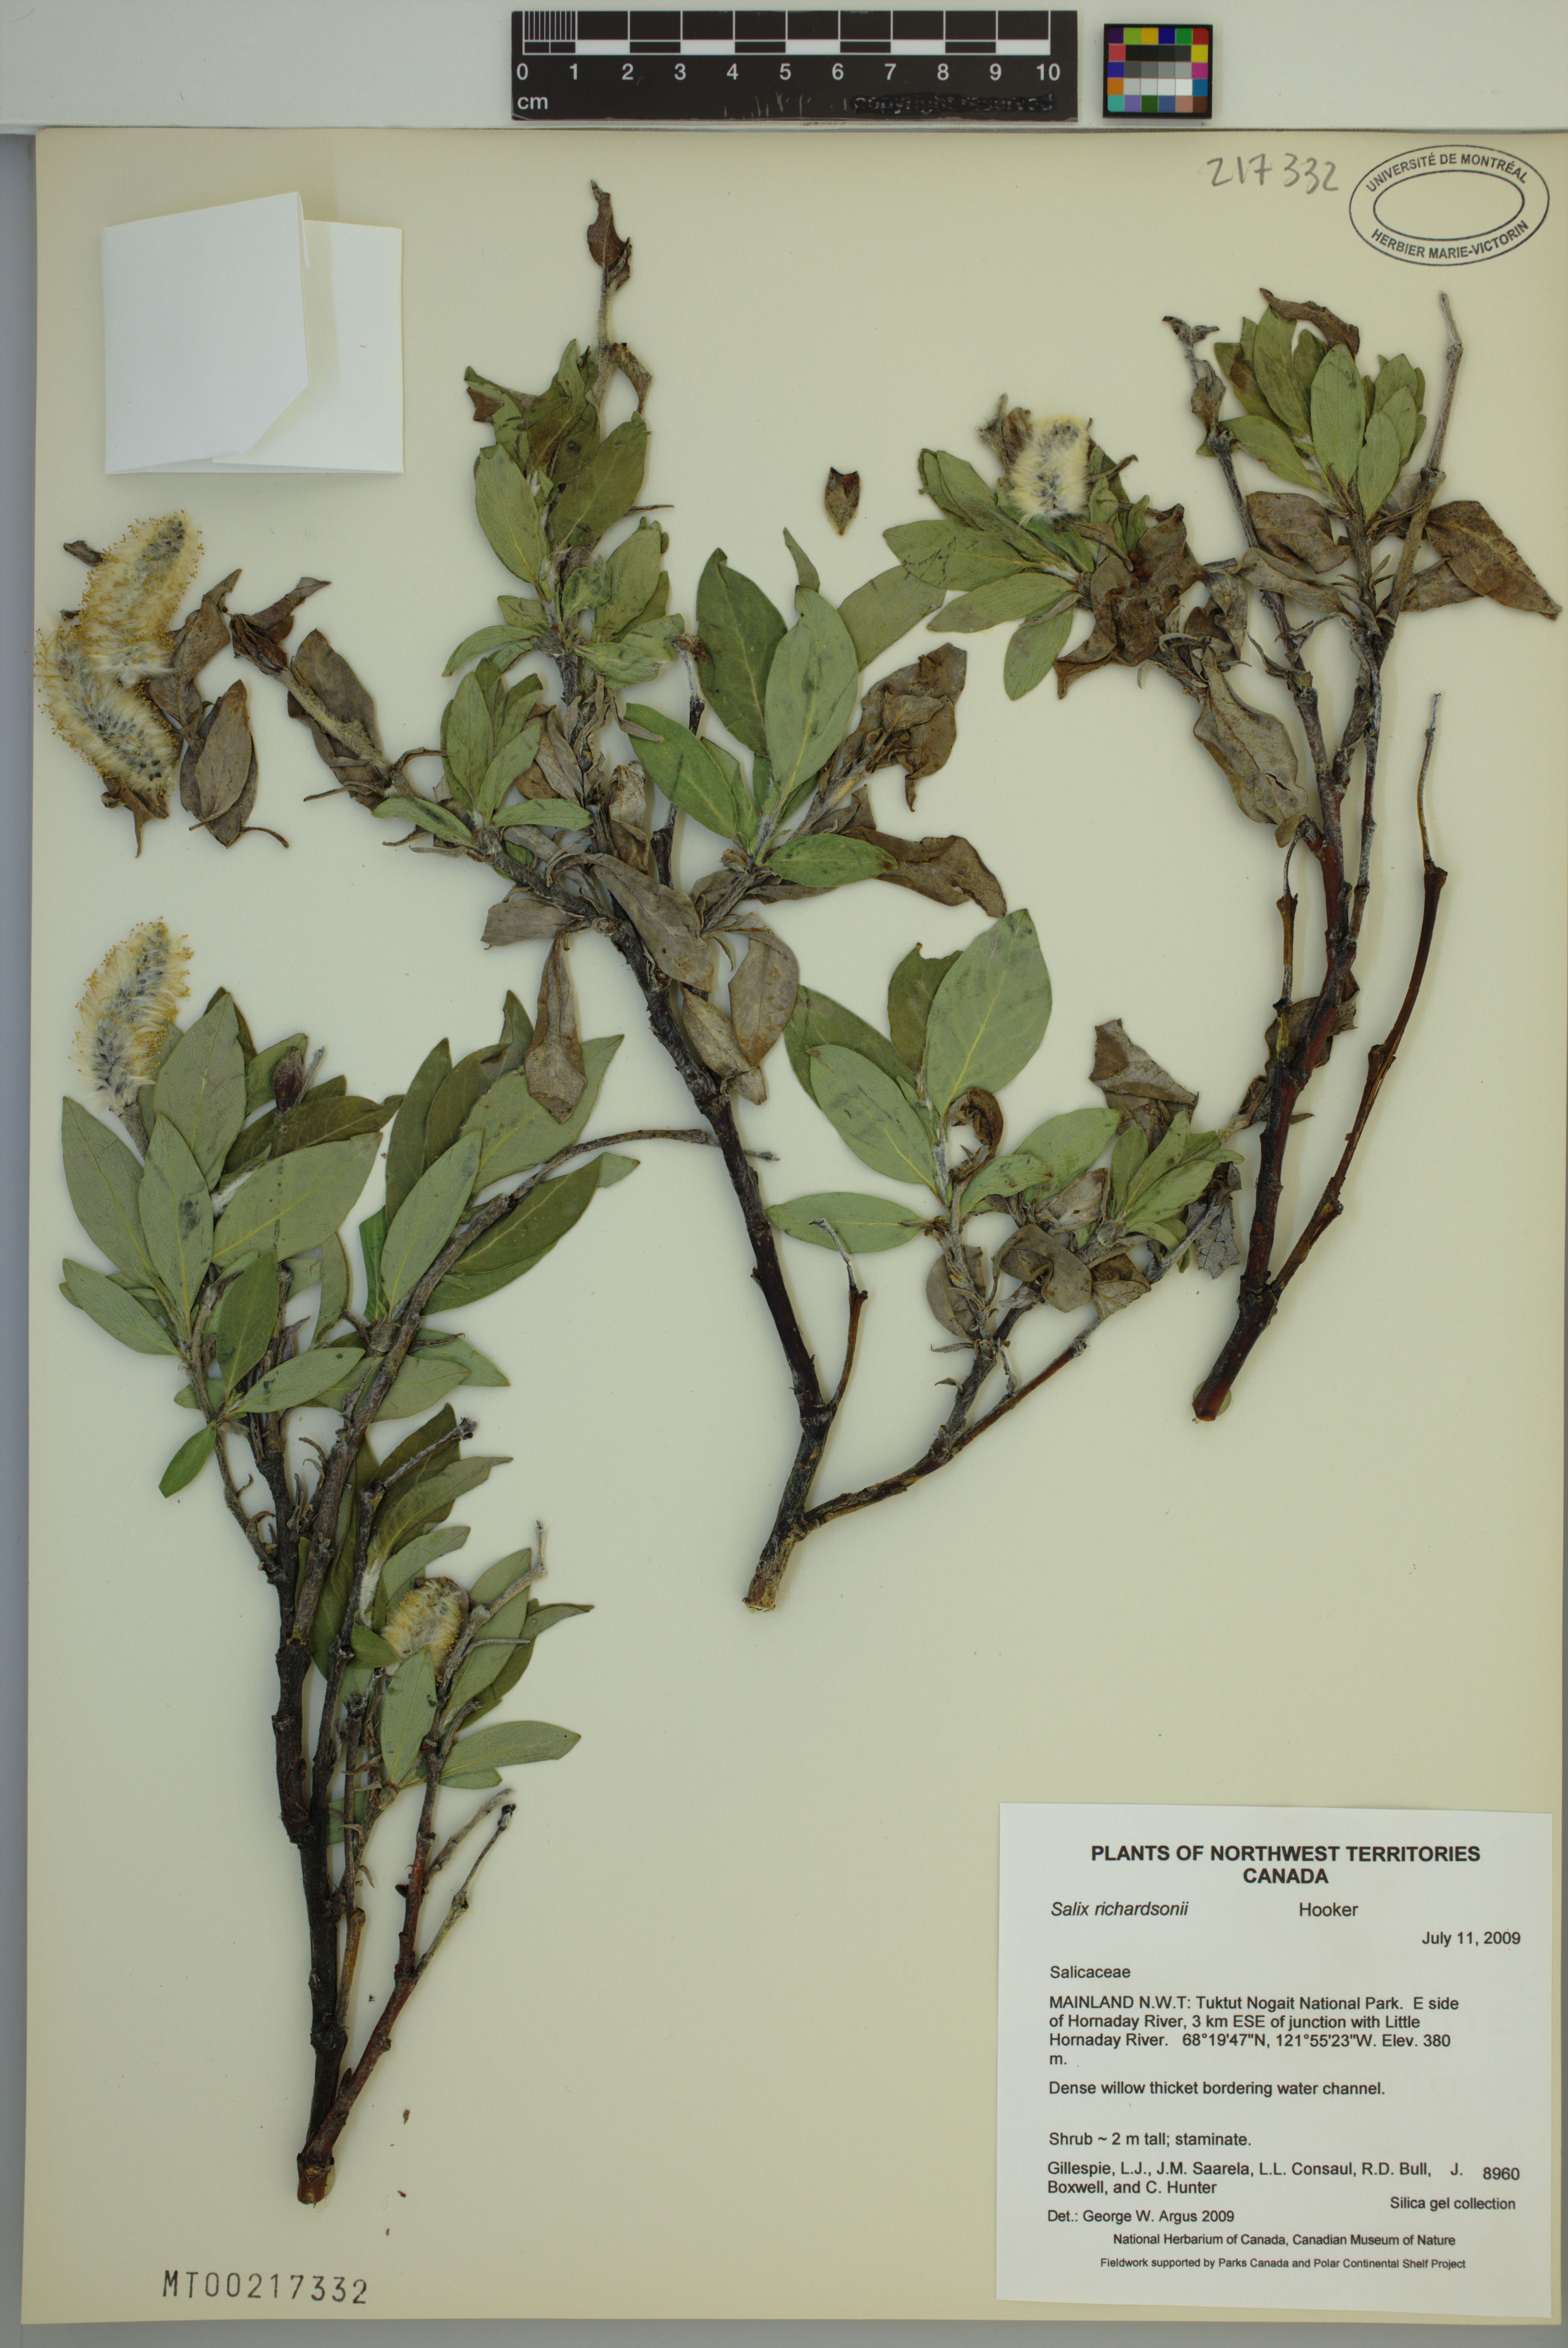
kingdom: Plantae
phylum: Tracheophyta
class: Magnoliopsida
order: Malpighiales
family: Salicaceae
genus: Salix
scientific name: Salix richardsonii
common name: Richardson’s willow
